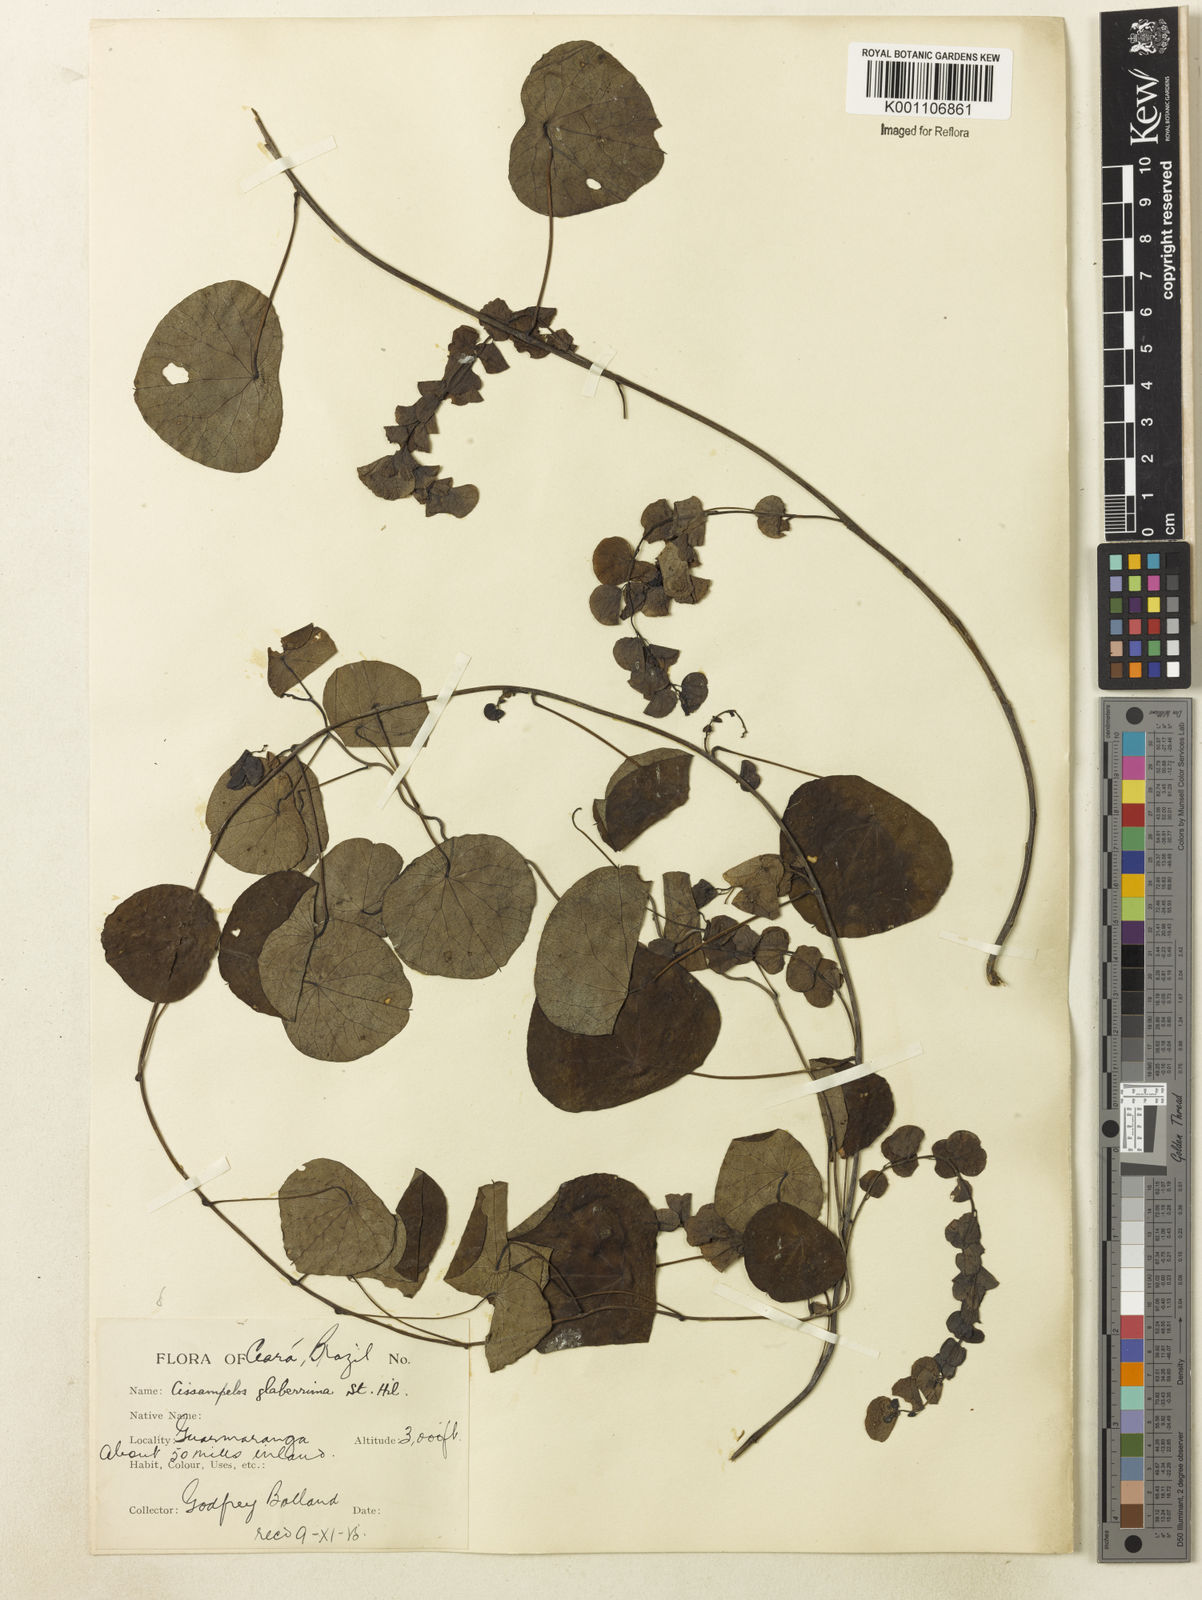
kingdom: Plantae
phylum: Tracheophyta
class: Magnoliopsida
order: Ranunculales
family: Menispermaceae
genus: Cissampelos
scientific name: Cissampelos glaberrima
